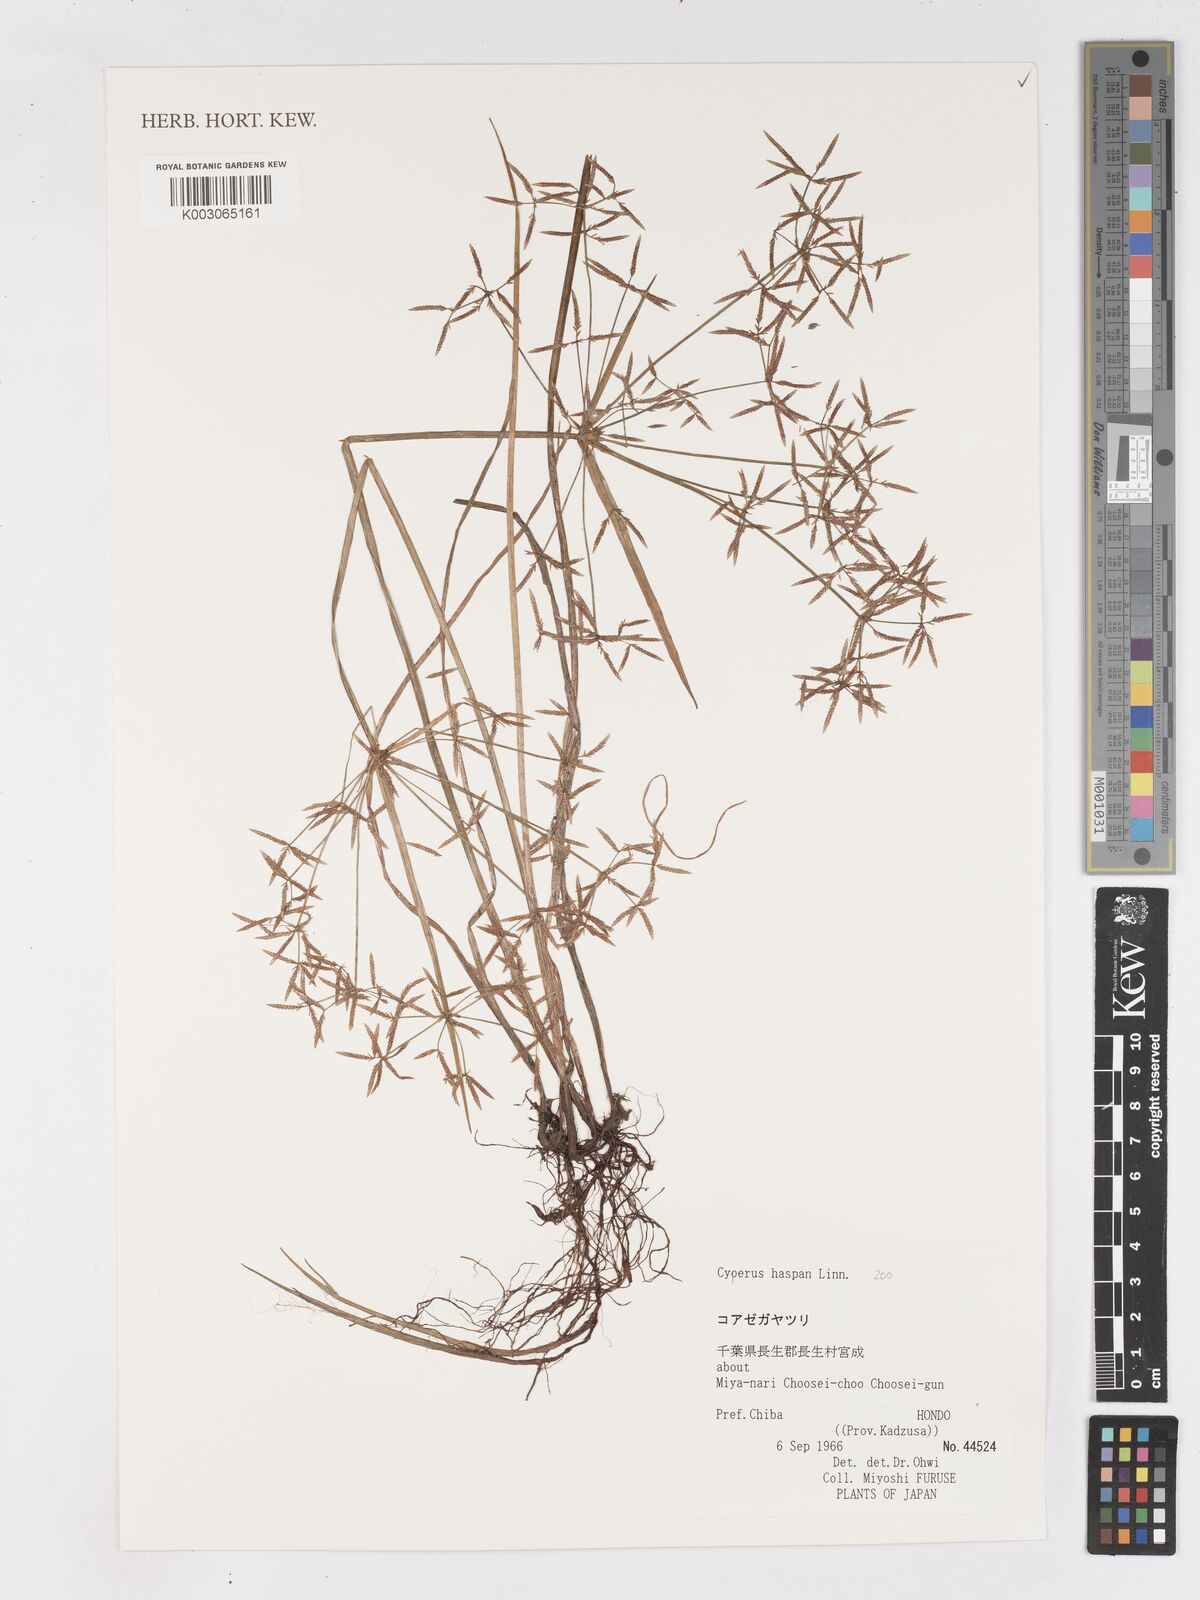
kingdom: Plantae
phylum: Tracheophyta
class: Liliopsida
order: Poales
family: Cyperaceae
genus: Cyperus
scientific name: Cyperus haspan
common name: Haspan flatsedge
